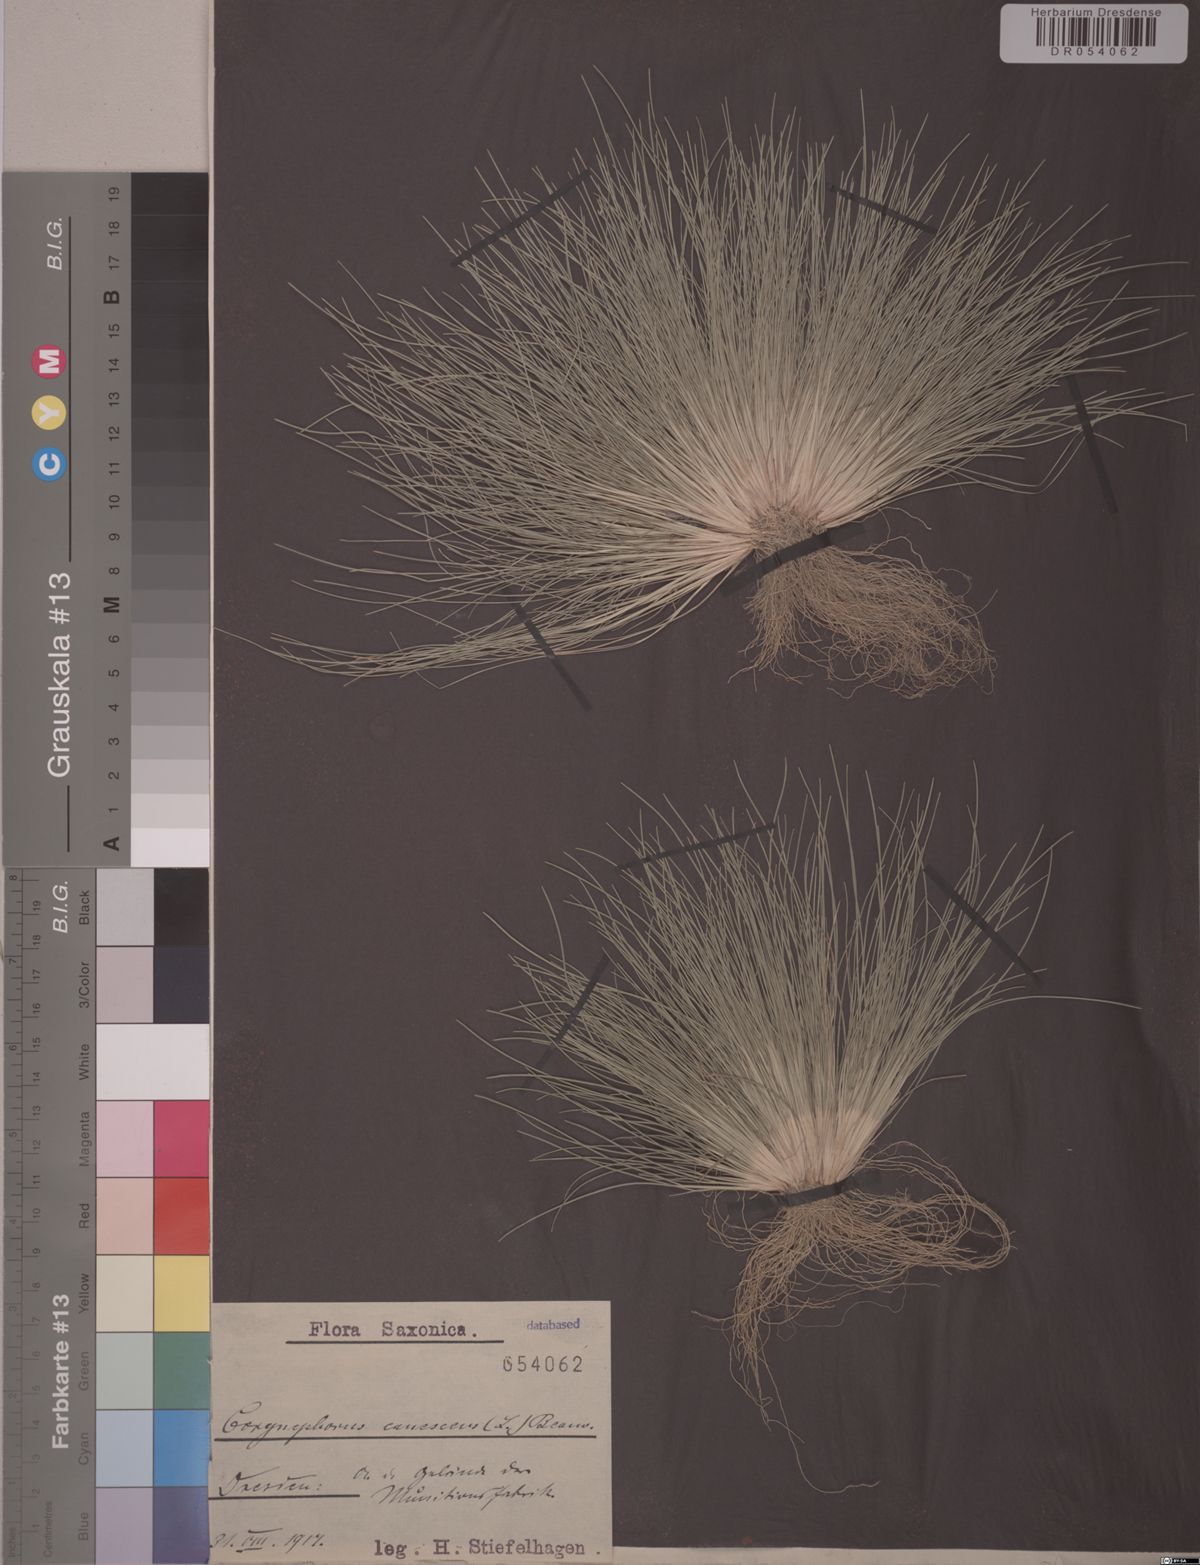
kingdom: Plantae
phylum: Tracheophyta
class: Liliopsida
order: Poales
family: Poaceae
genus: Corynephorus
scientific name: Corynephorus canescens
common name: Grey hair-grass
